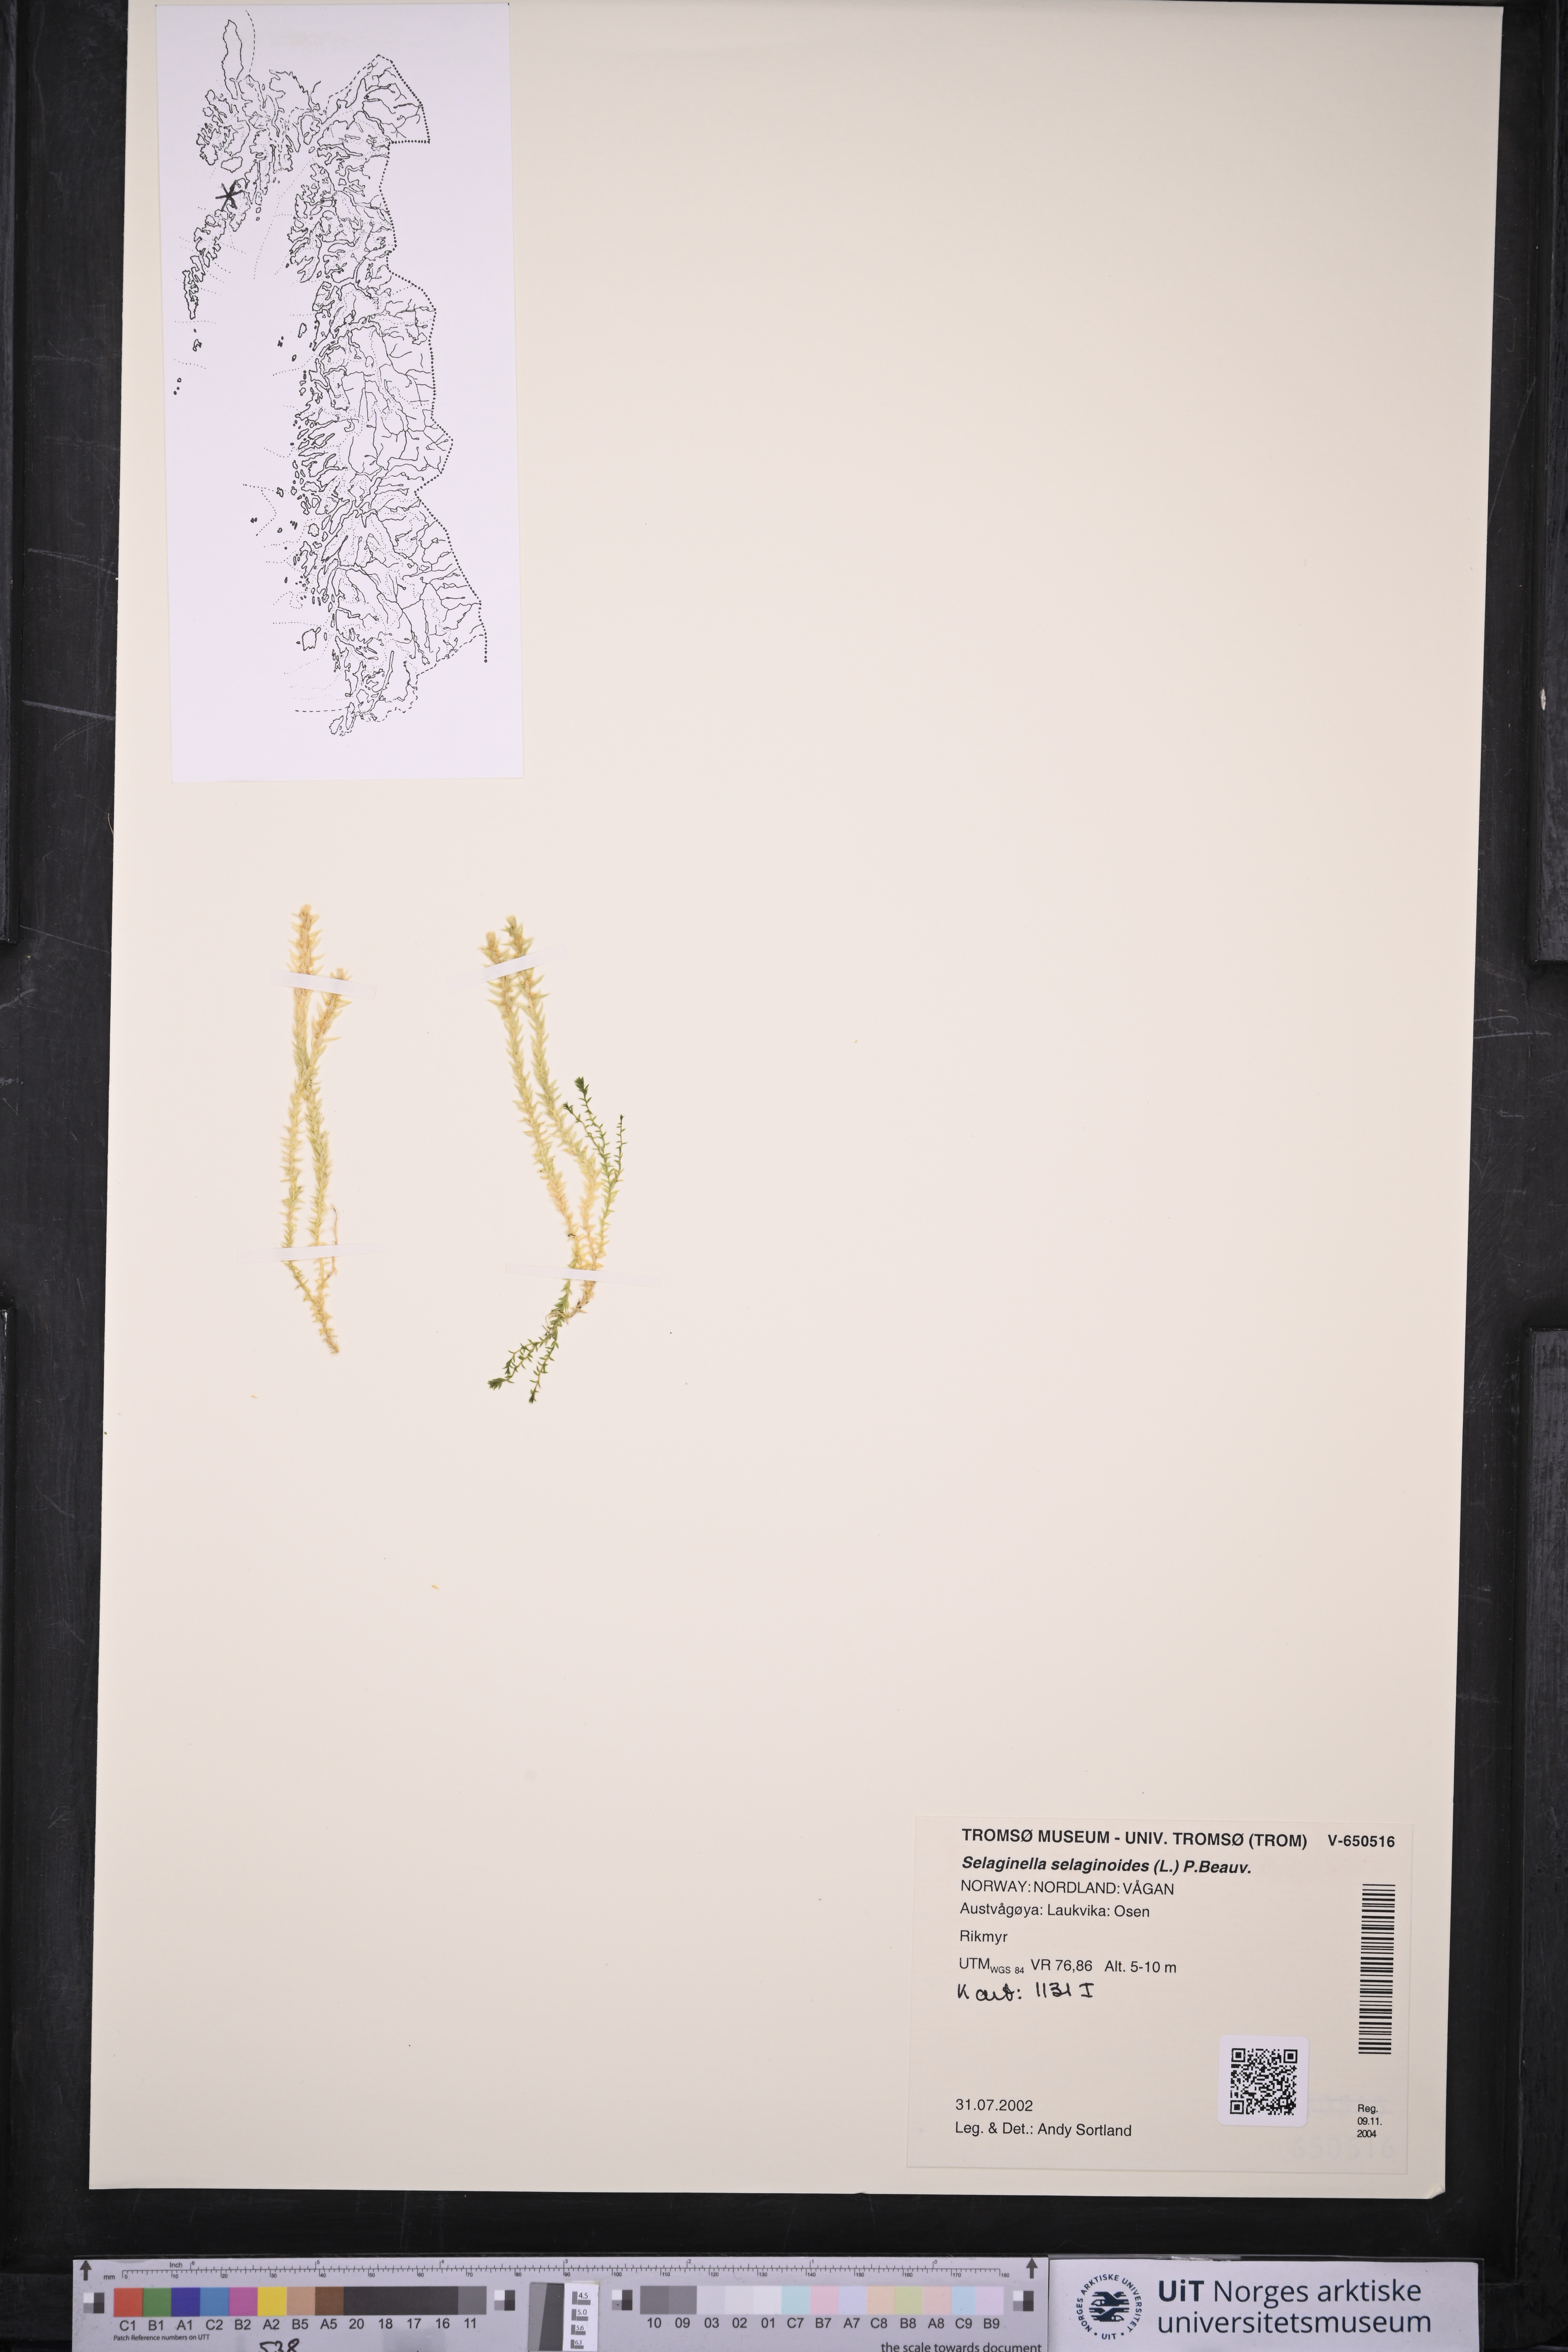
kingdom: Plantae
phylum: Tracheophyta
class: Lycopodiopsida
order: Selaginellales
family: Selaginellaceae
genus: Selaginella
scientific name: Selaginella selaginoides
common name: Prickly mountain-moss
